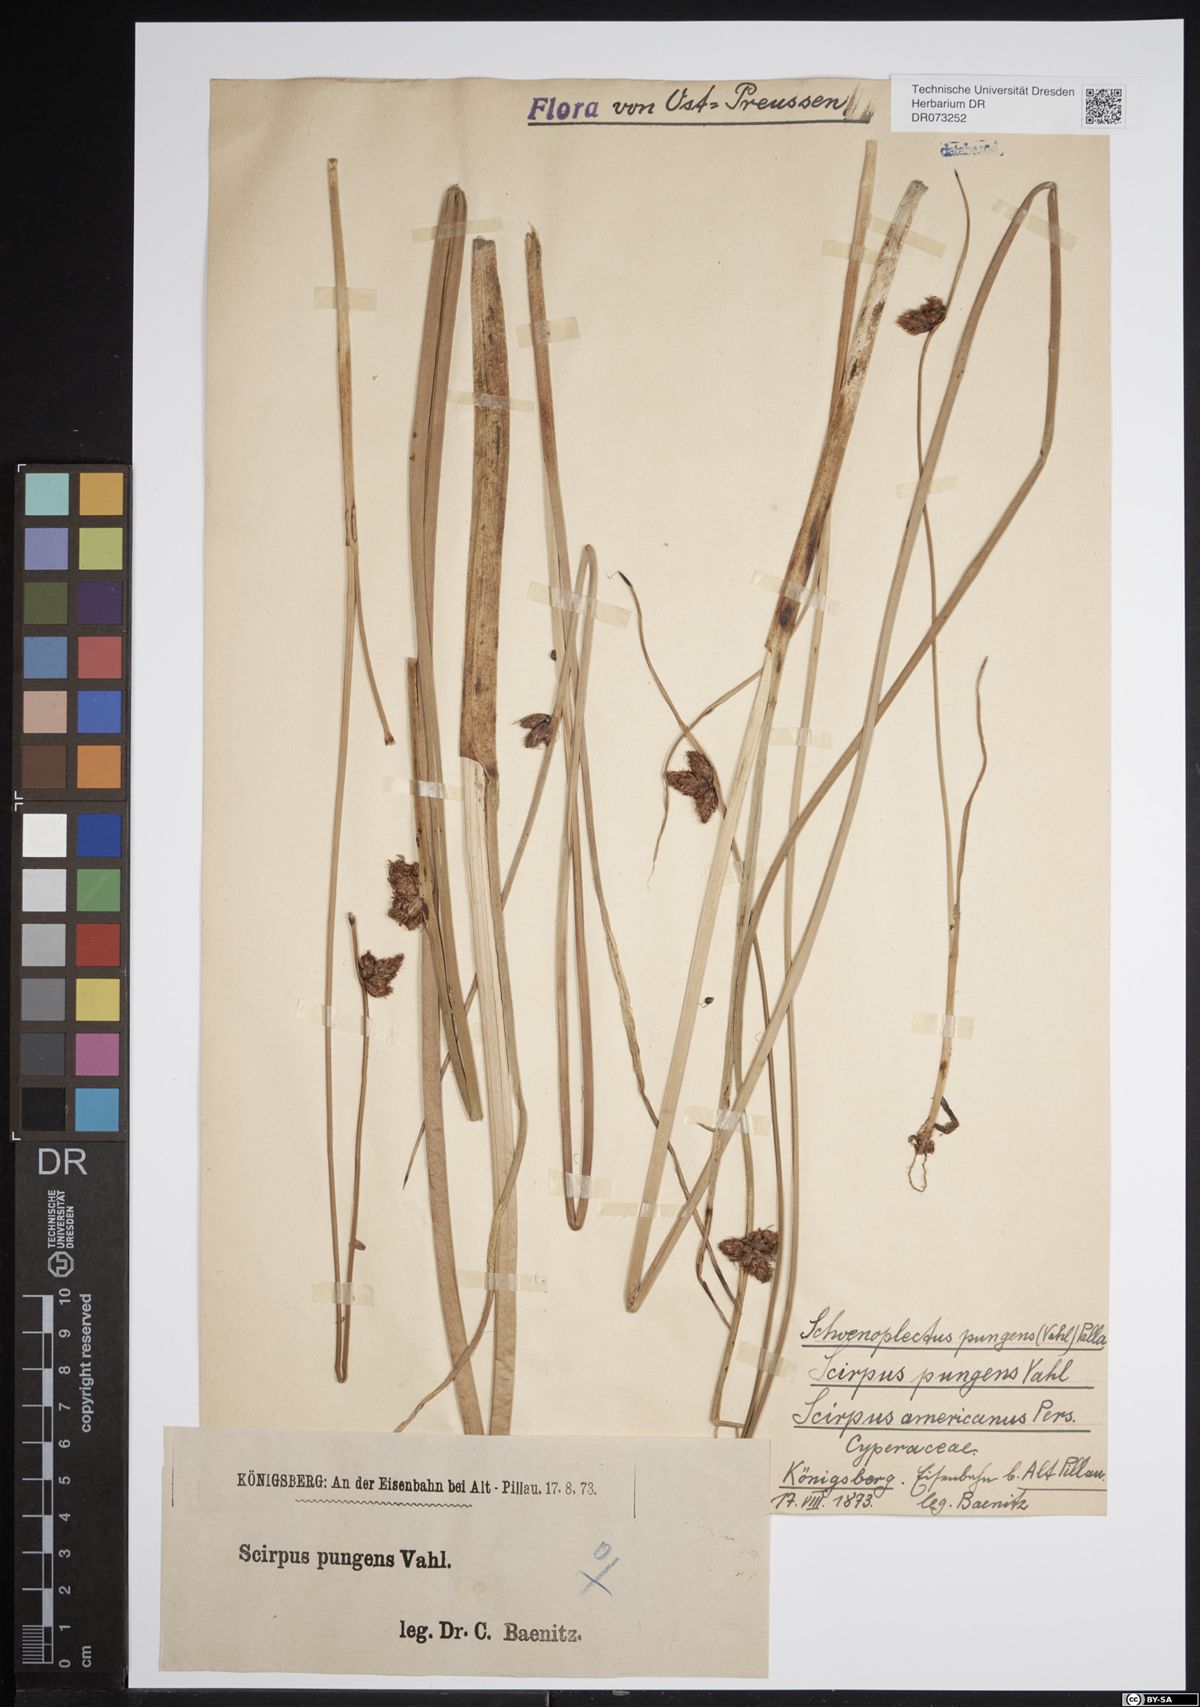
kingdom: Plantae
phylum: Tracheophyta
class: Liliopsida
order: Poales
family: Cyperaceae
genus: Schoenoplectus
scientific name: Schoenoplectus pungens
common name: Sharp club-rush
